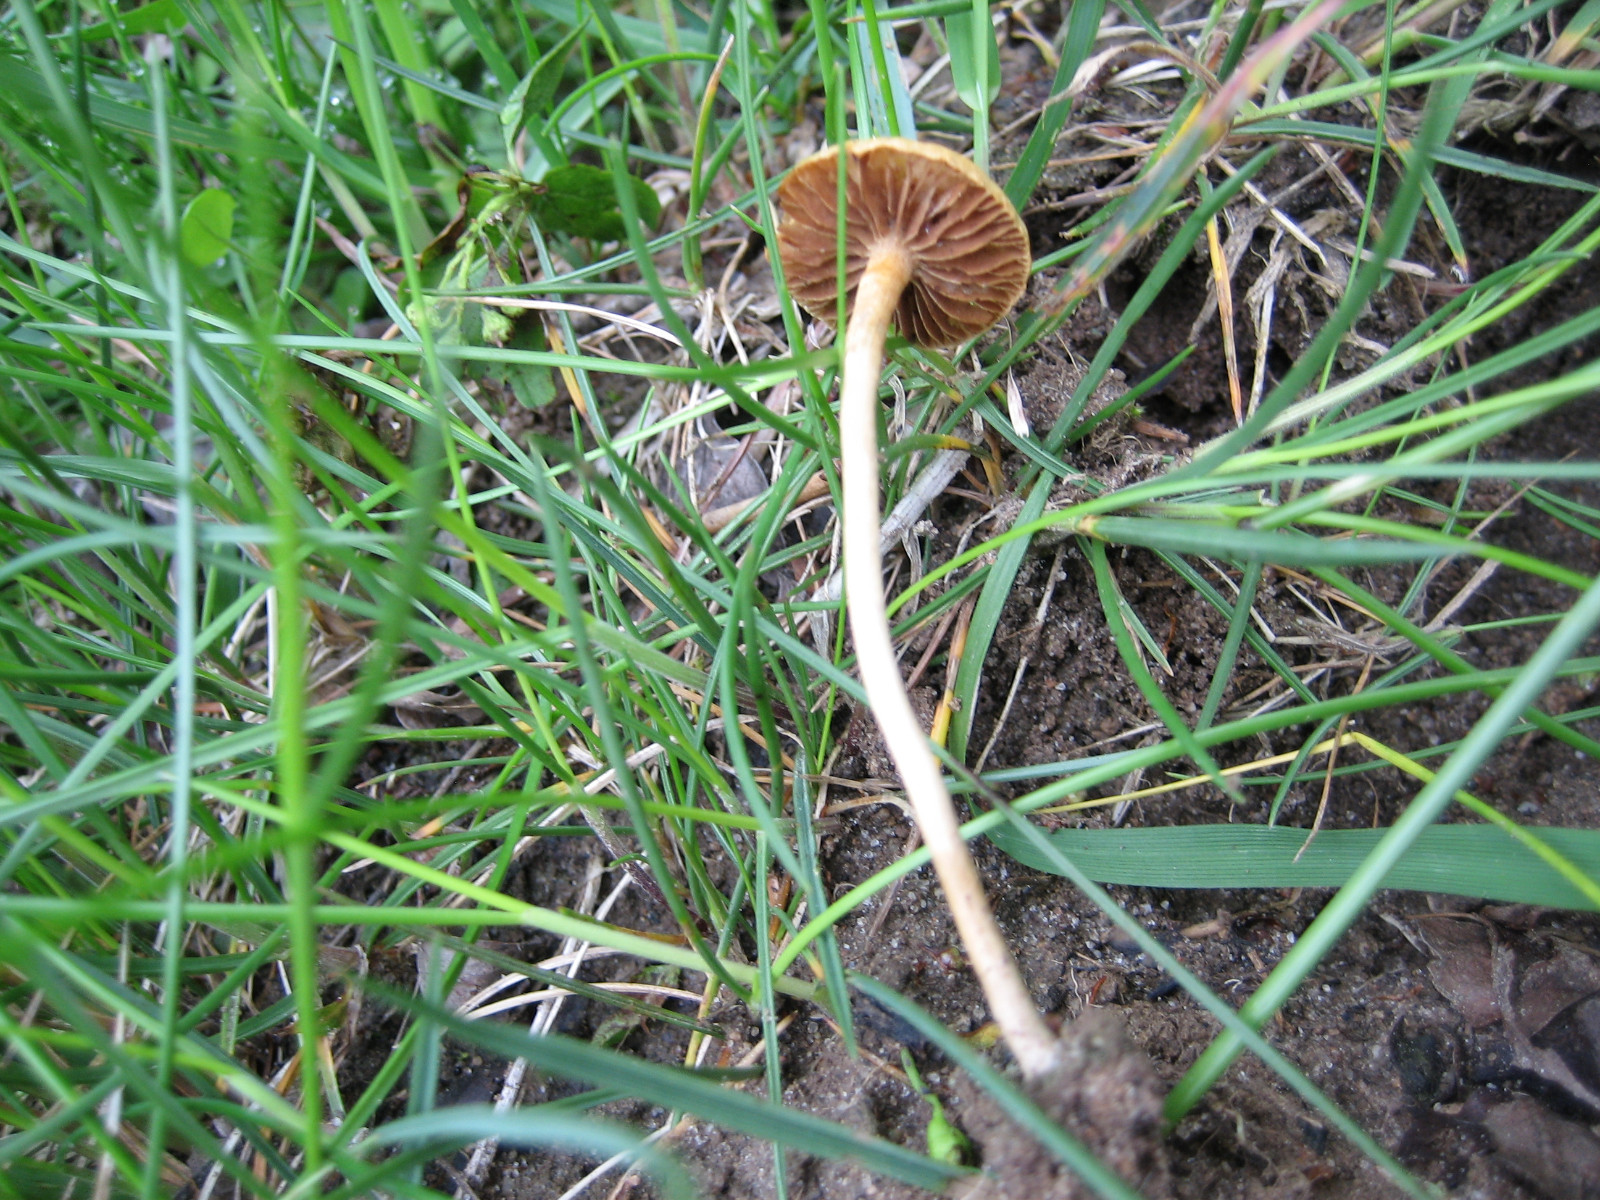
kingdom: Fungi
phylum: Basidiomycota
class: Agaricomycetes
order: Agaricales
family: Strophariaceae
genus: Agrocybe
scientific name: Agrocybe pediades
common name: almindelig agerhat
